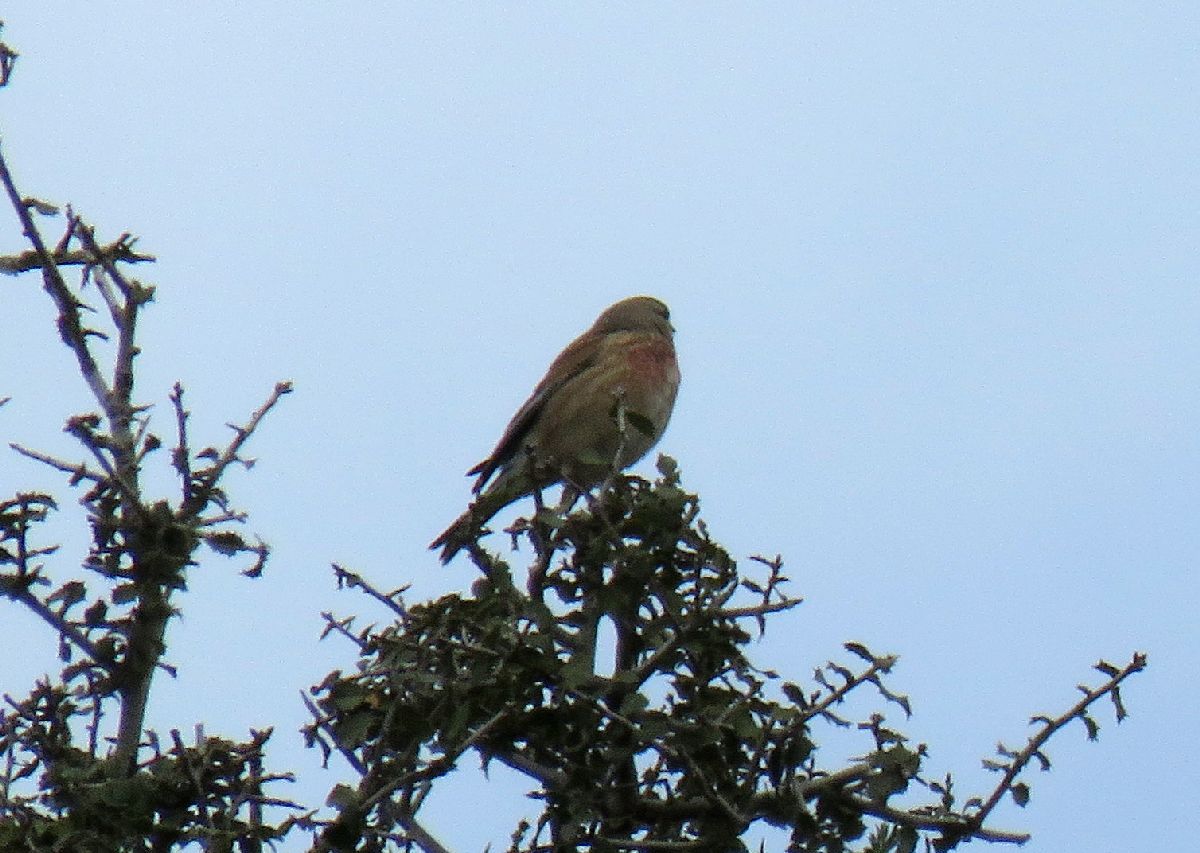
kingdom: Plantae
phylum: Tracheophyta
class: Liliopsida
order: Poales
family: Poaceae
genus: Chloris
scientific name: Chloris chloris
